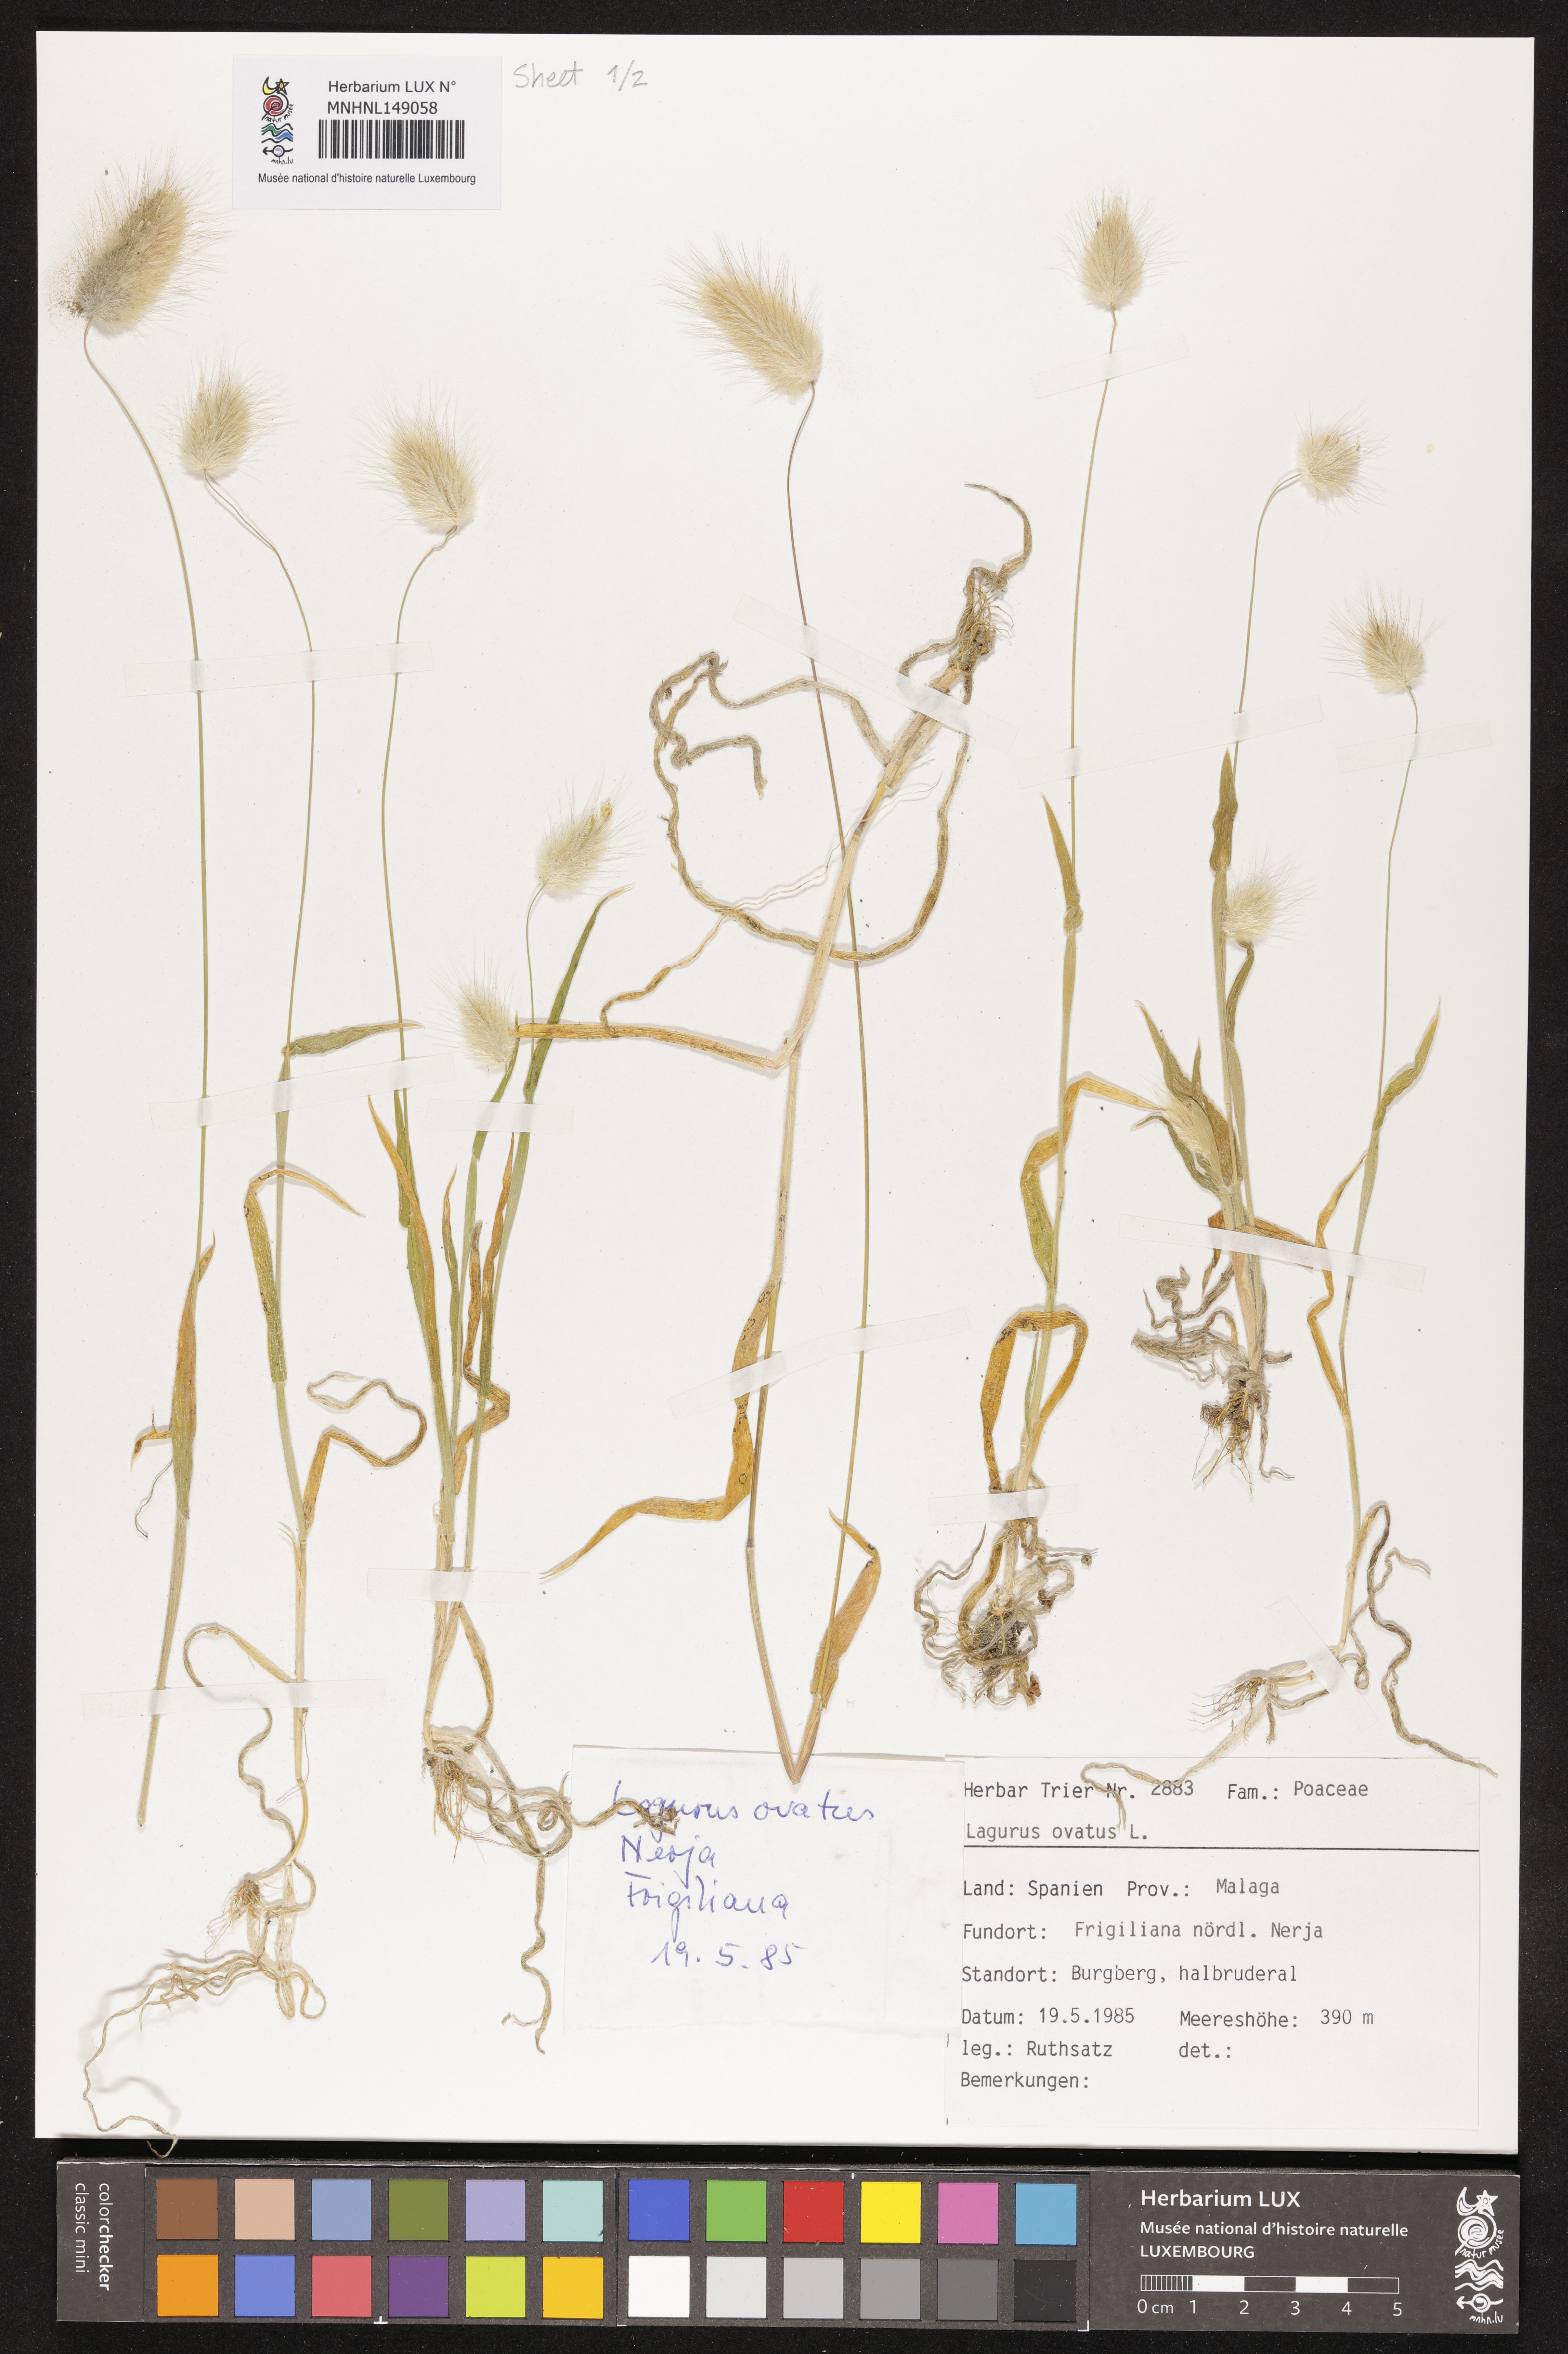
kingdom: Plantae
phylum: Tracheophyta
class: Liliopsida
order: Poales
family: Poaceae
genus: Lagurus
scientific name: Lagurus ovatus
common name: Hare's-tail
